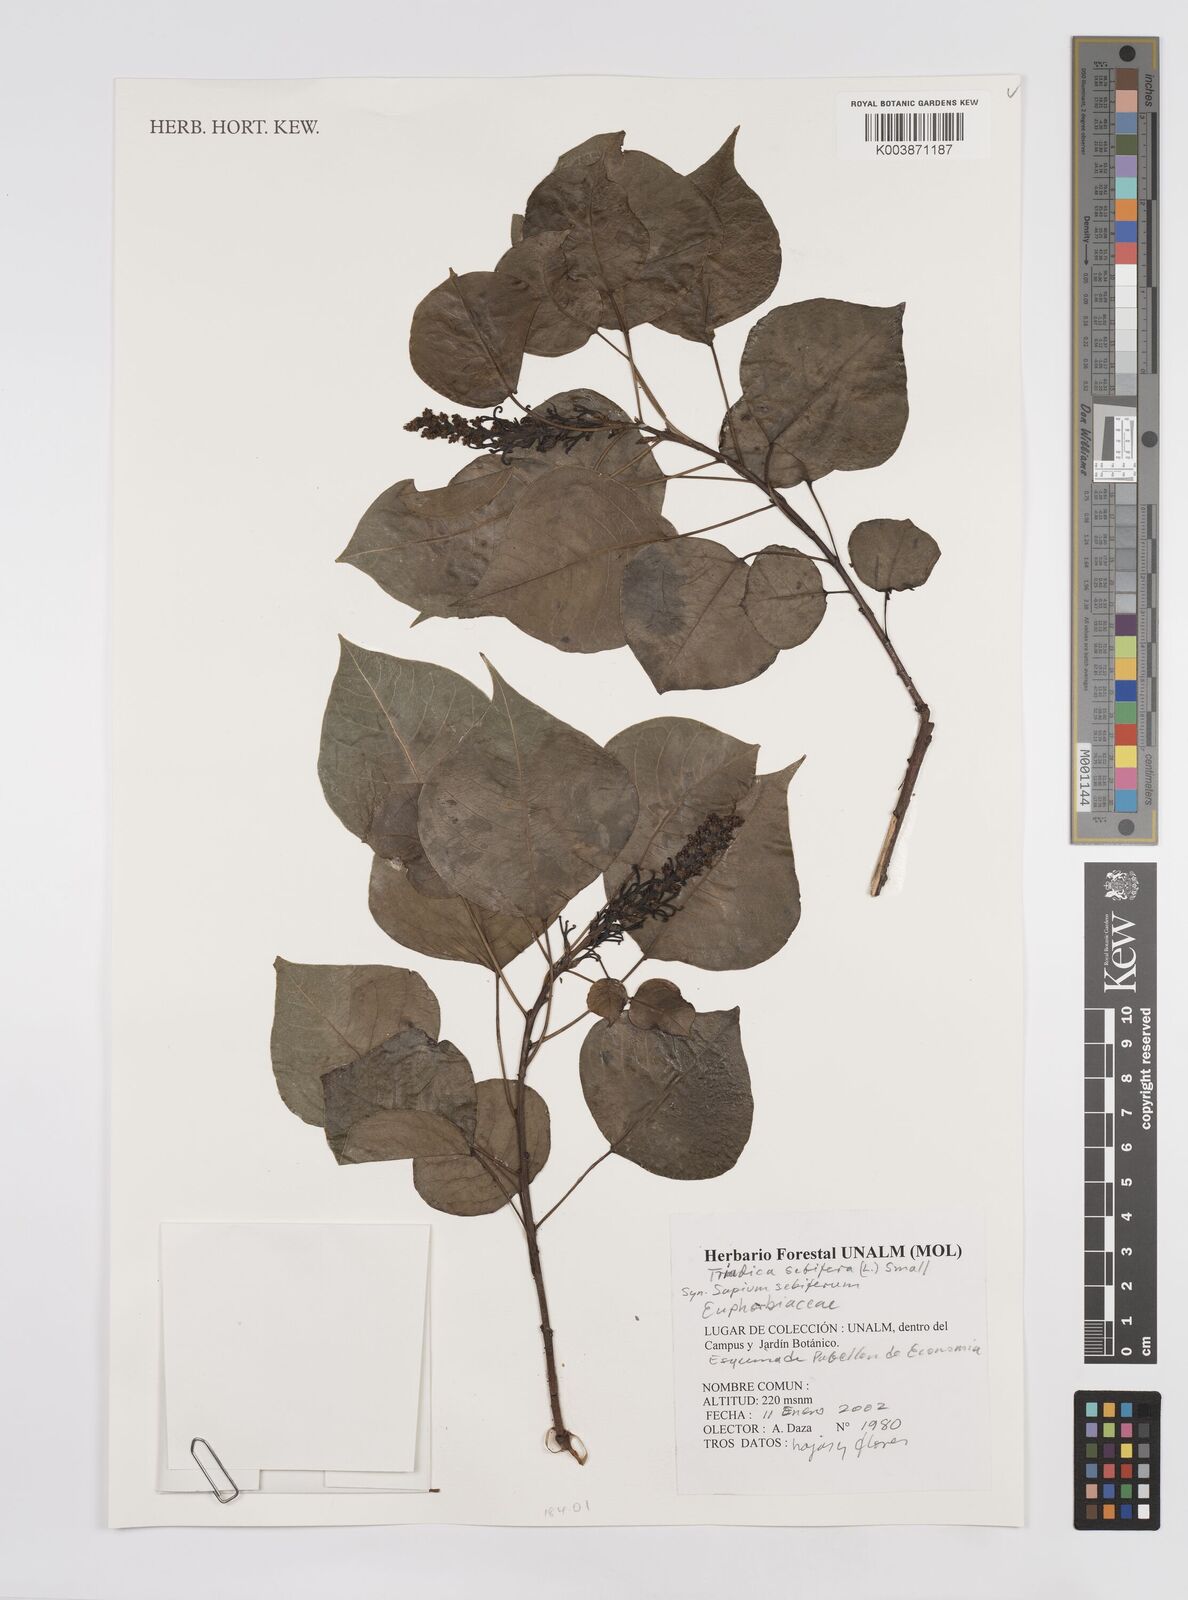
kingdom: Plantae
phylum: Tracheophyta
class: Magnoliopsida
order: Malpighiales
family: Euphorbiaceae
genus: Triadica
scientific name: Triadica sebifera
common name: Chinese tallow
